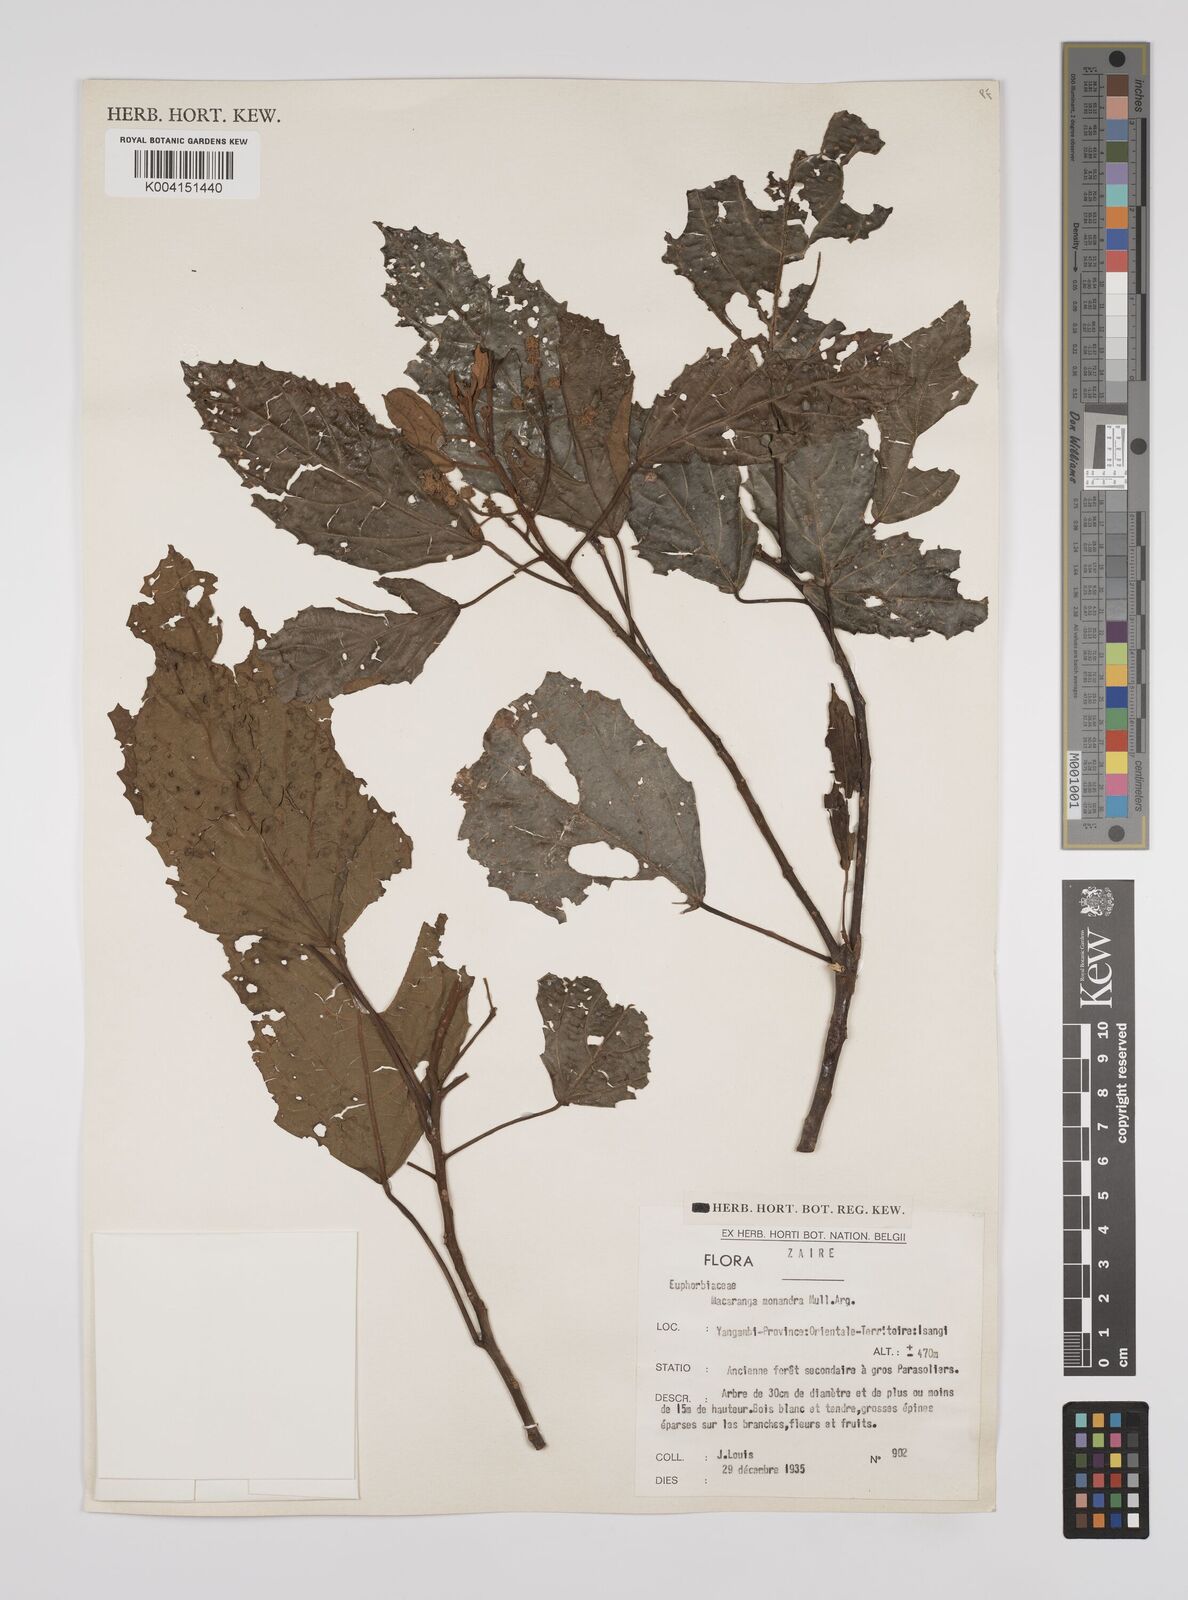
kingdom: Plantae
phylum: Tracheophyta
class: Magnoliopsida
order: Malpighiales
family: Euphorbiaceae
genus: Macaranga
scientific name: Macaranga monandra
